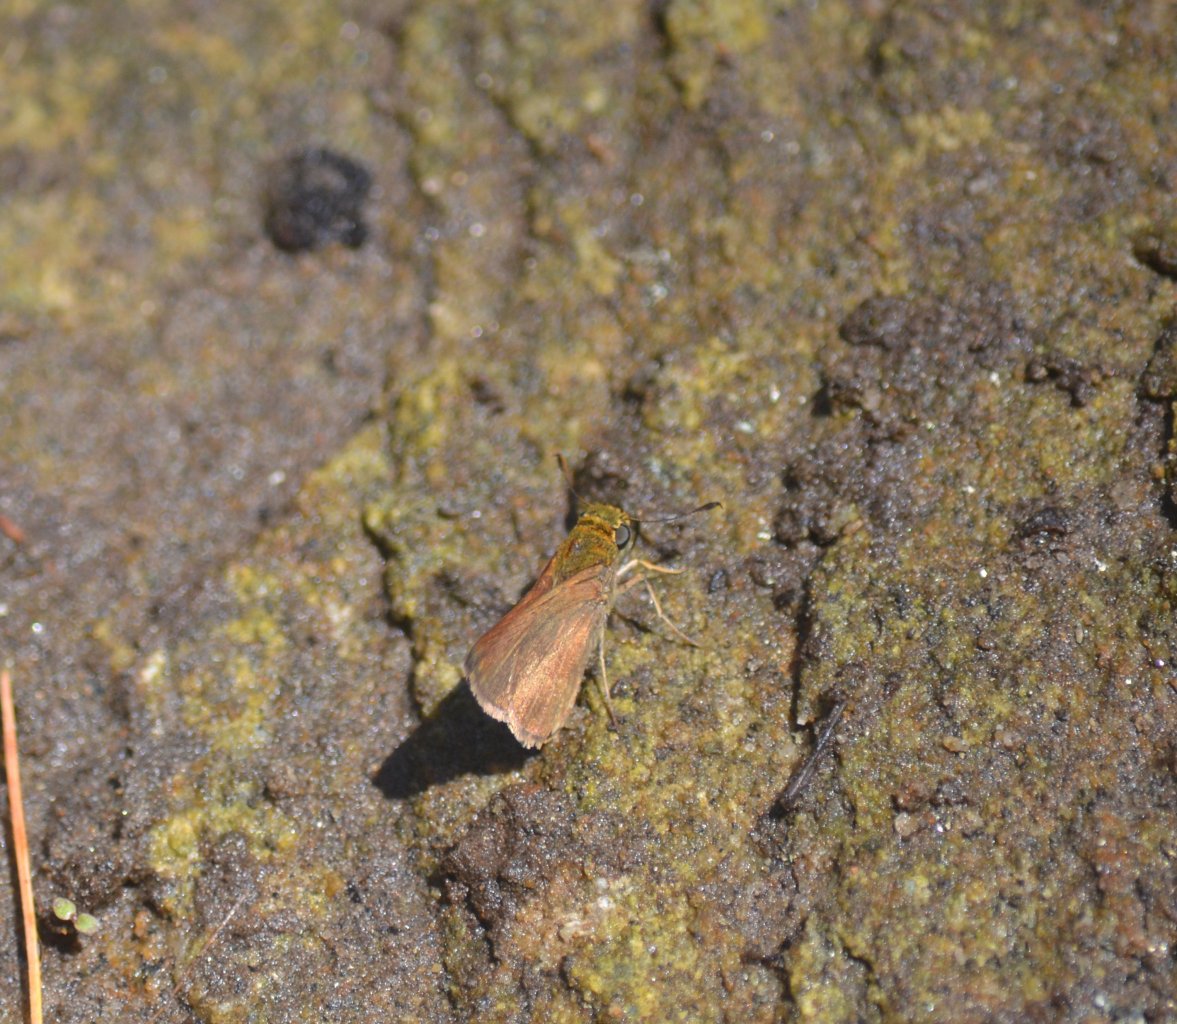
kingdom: Animalia
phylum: Arthropoda
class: Insecta
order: Lepidoptera
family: Hesperiidae
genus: Euphyes
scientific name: Euphyes vestris
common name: Dun Skipper
